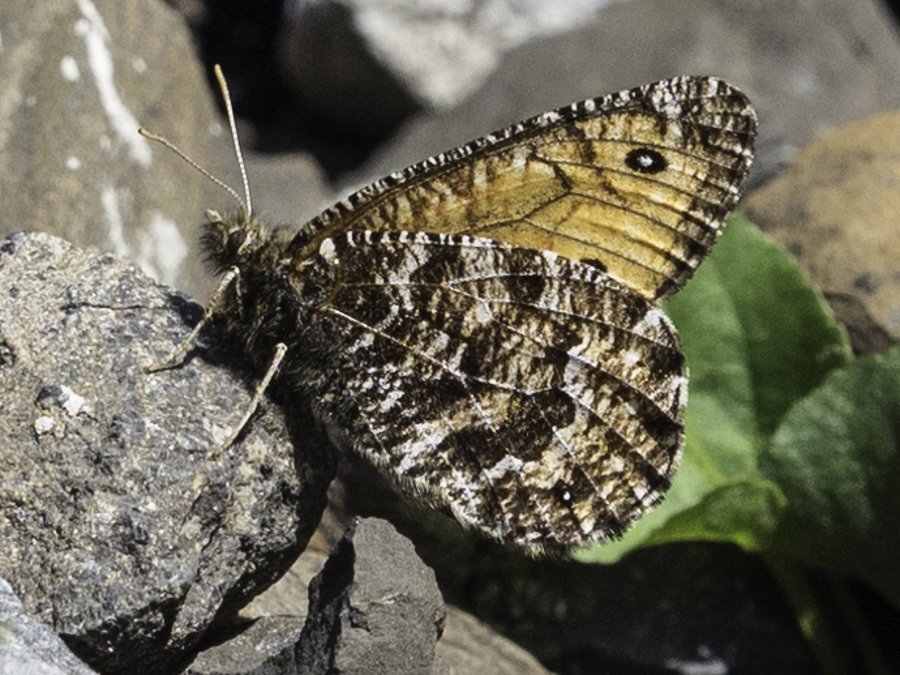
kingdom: Animalia
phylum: Arthropoda
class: Insecta
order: Lepidoptera
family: Nymphalidae
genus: Oeneis
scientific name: Oeneis chryxus
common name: Chryxus Arctic
